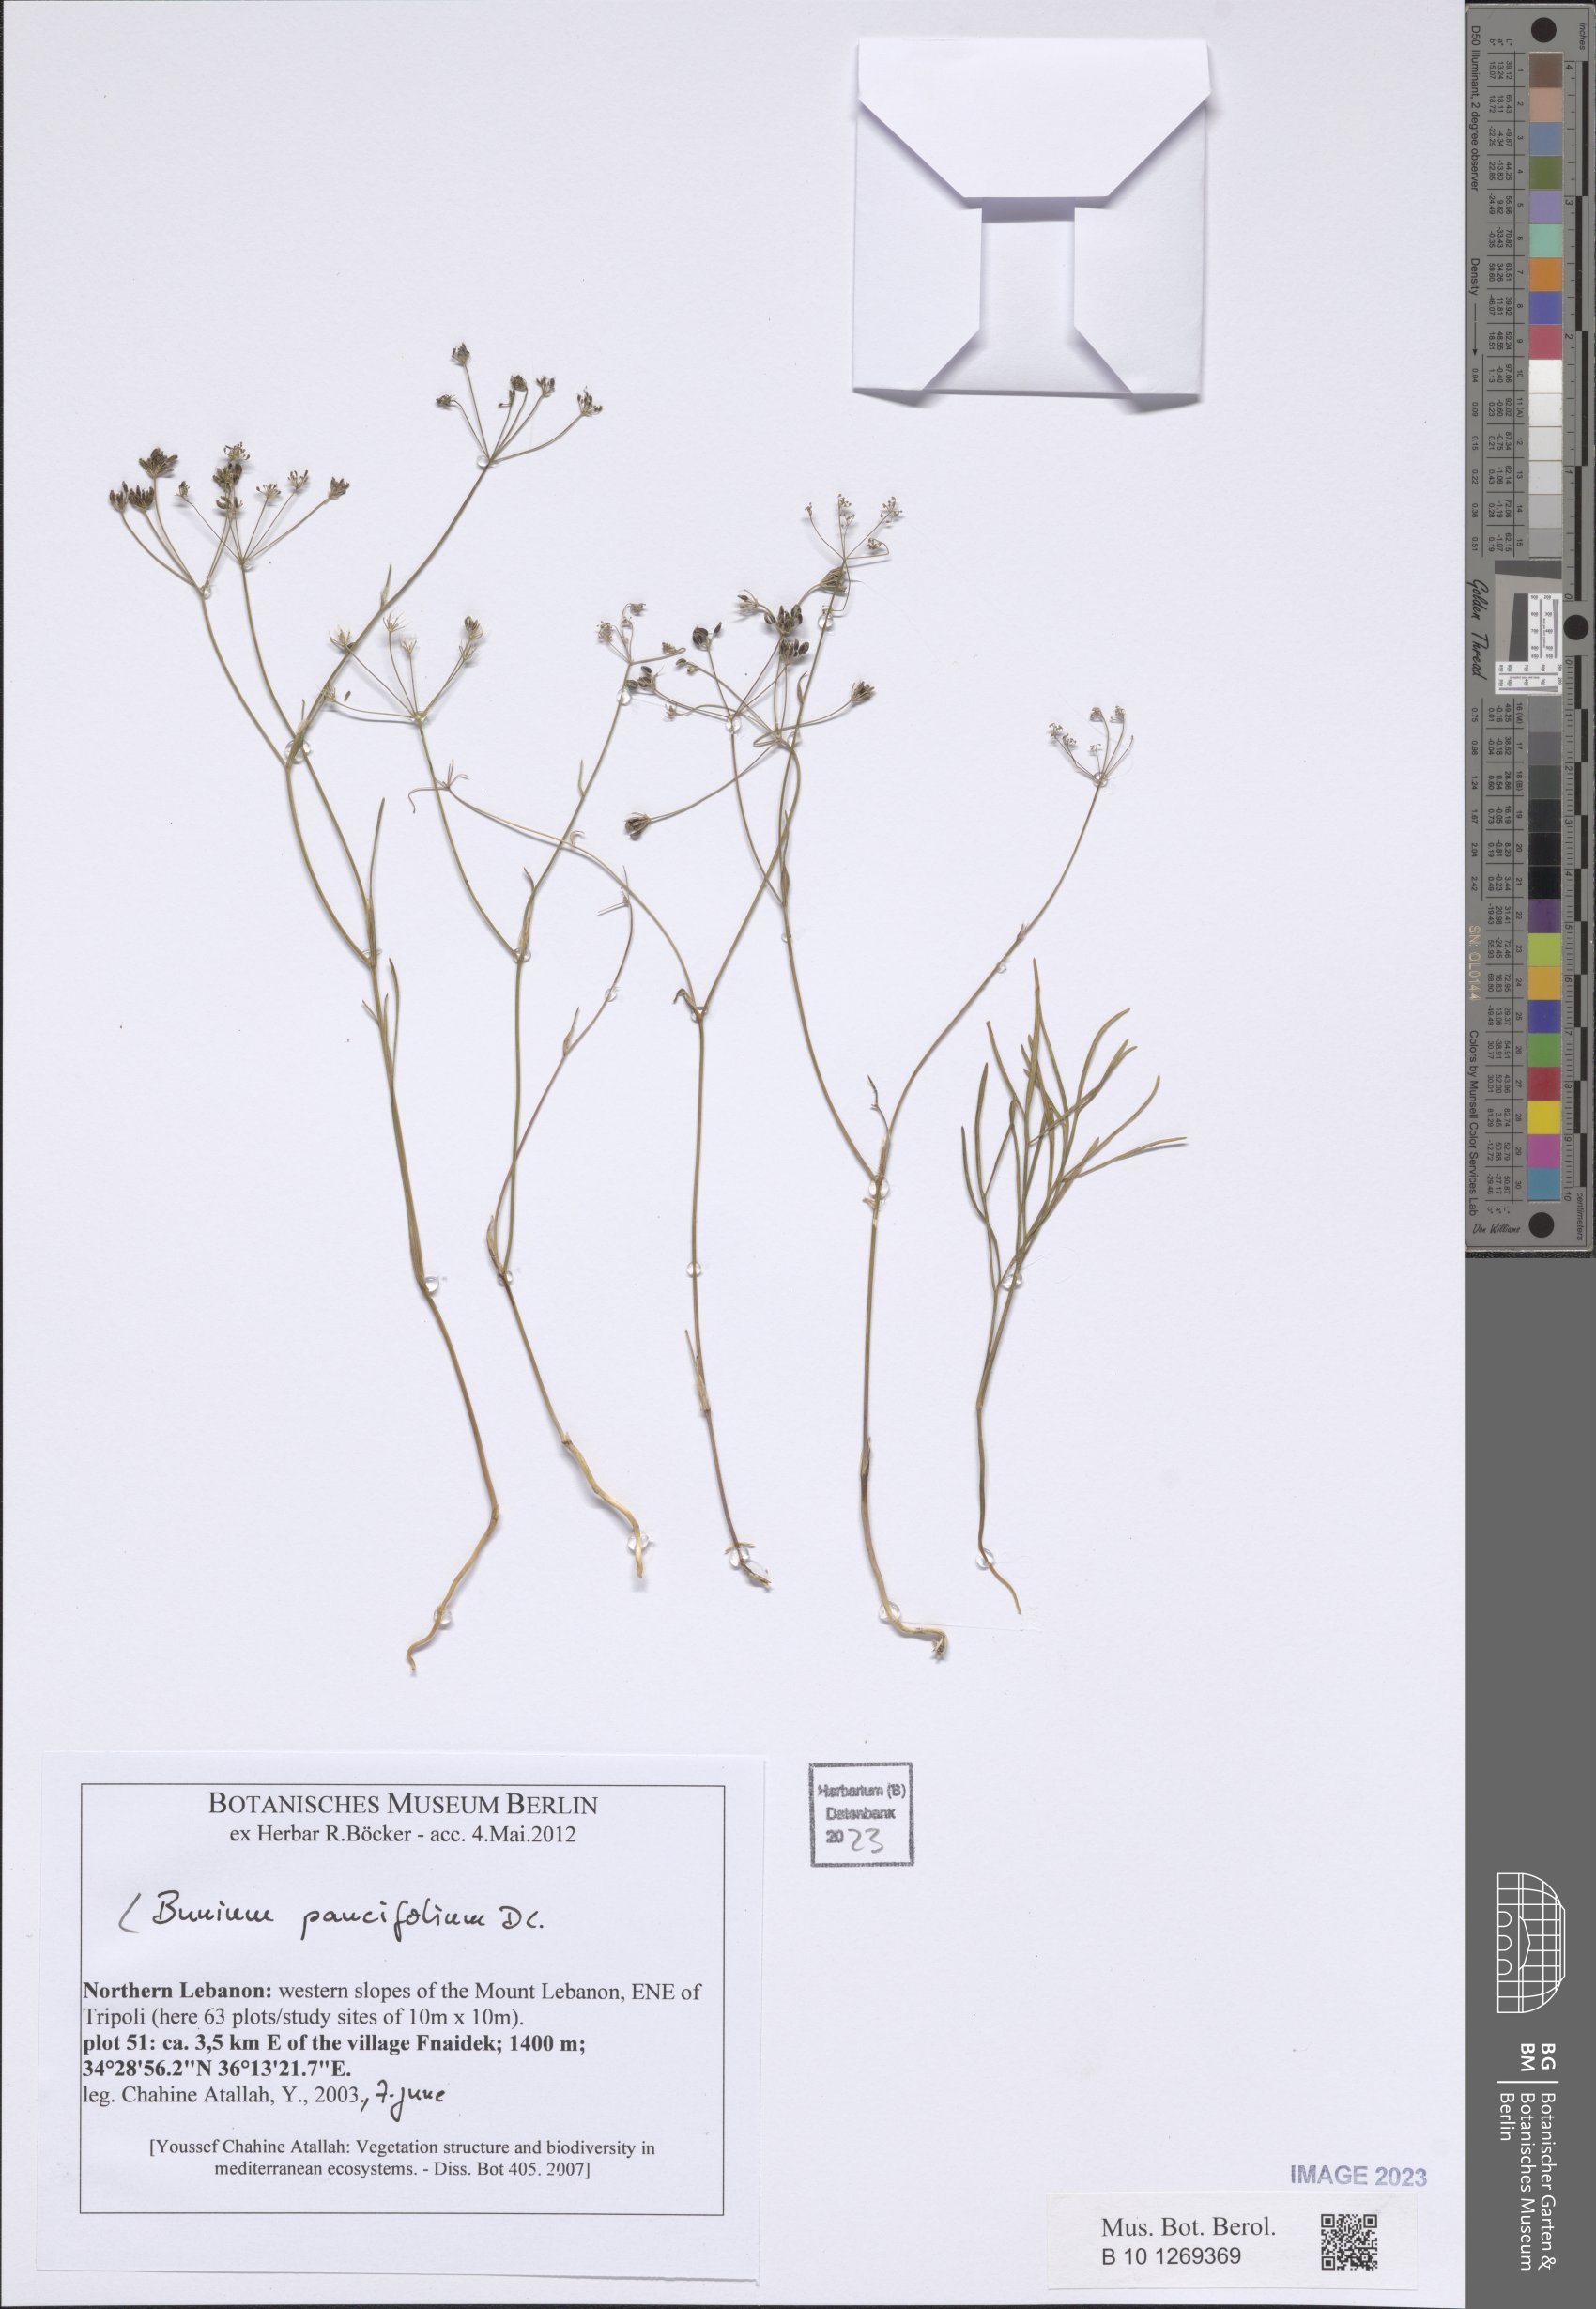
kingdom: Plantae
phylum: Tracheophyta
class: Magnoliopsida
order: Apiales
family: Apiaceae
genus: Bunium
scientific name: Bunium paucifolium
